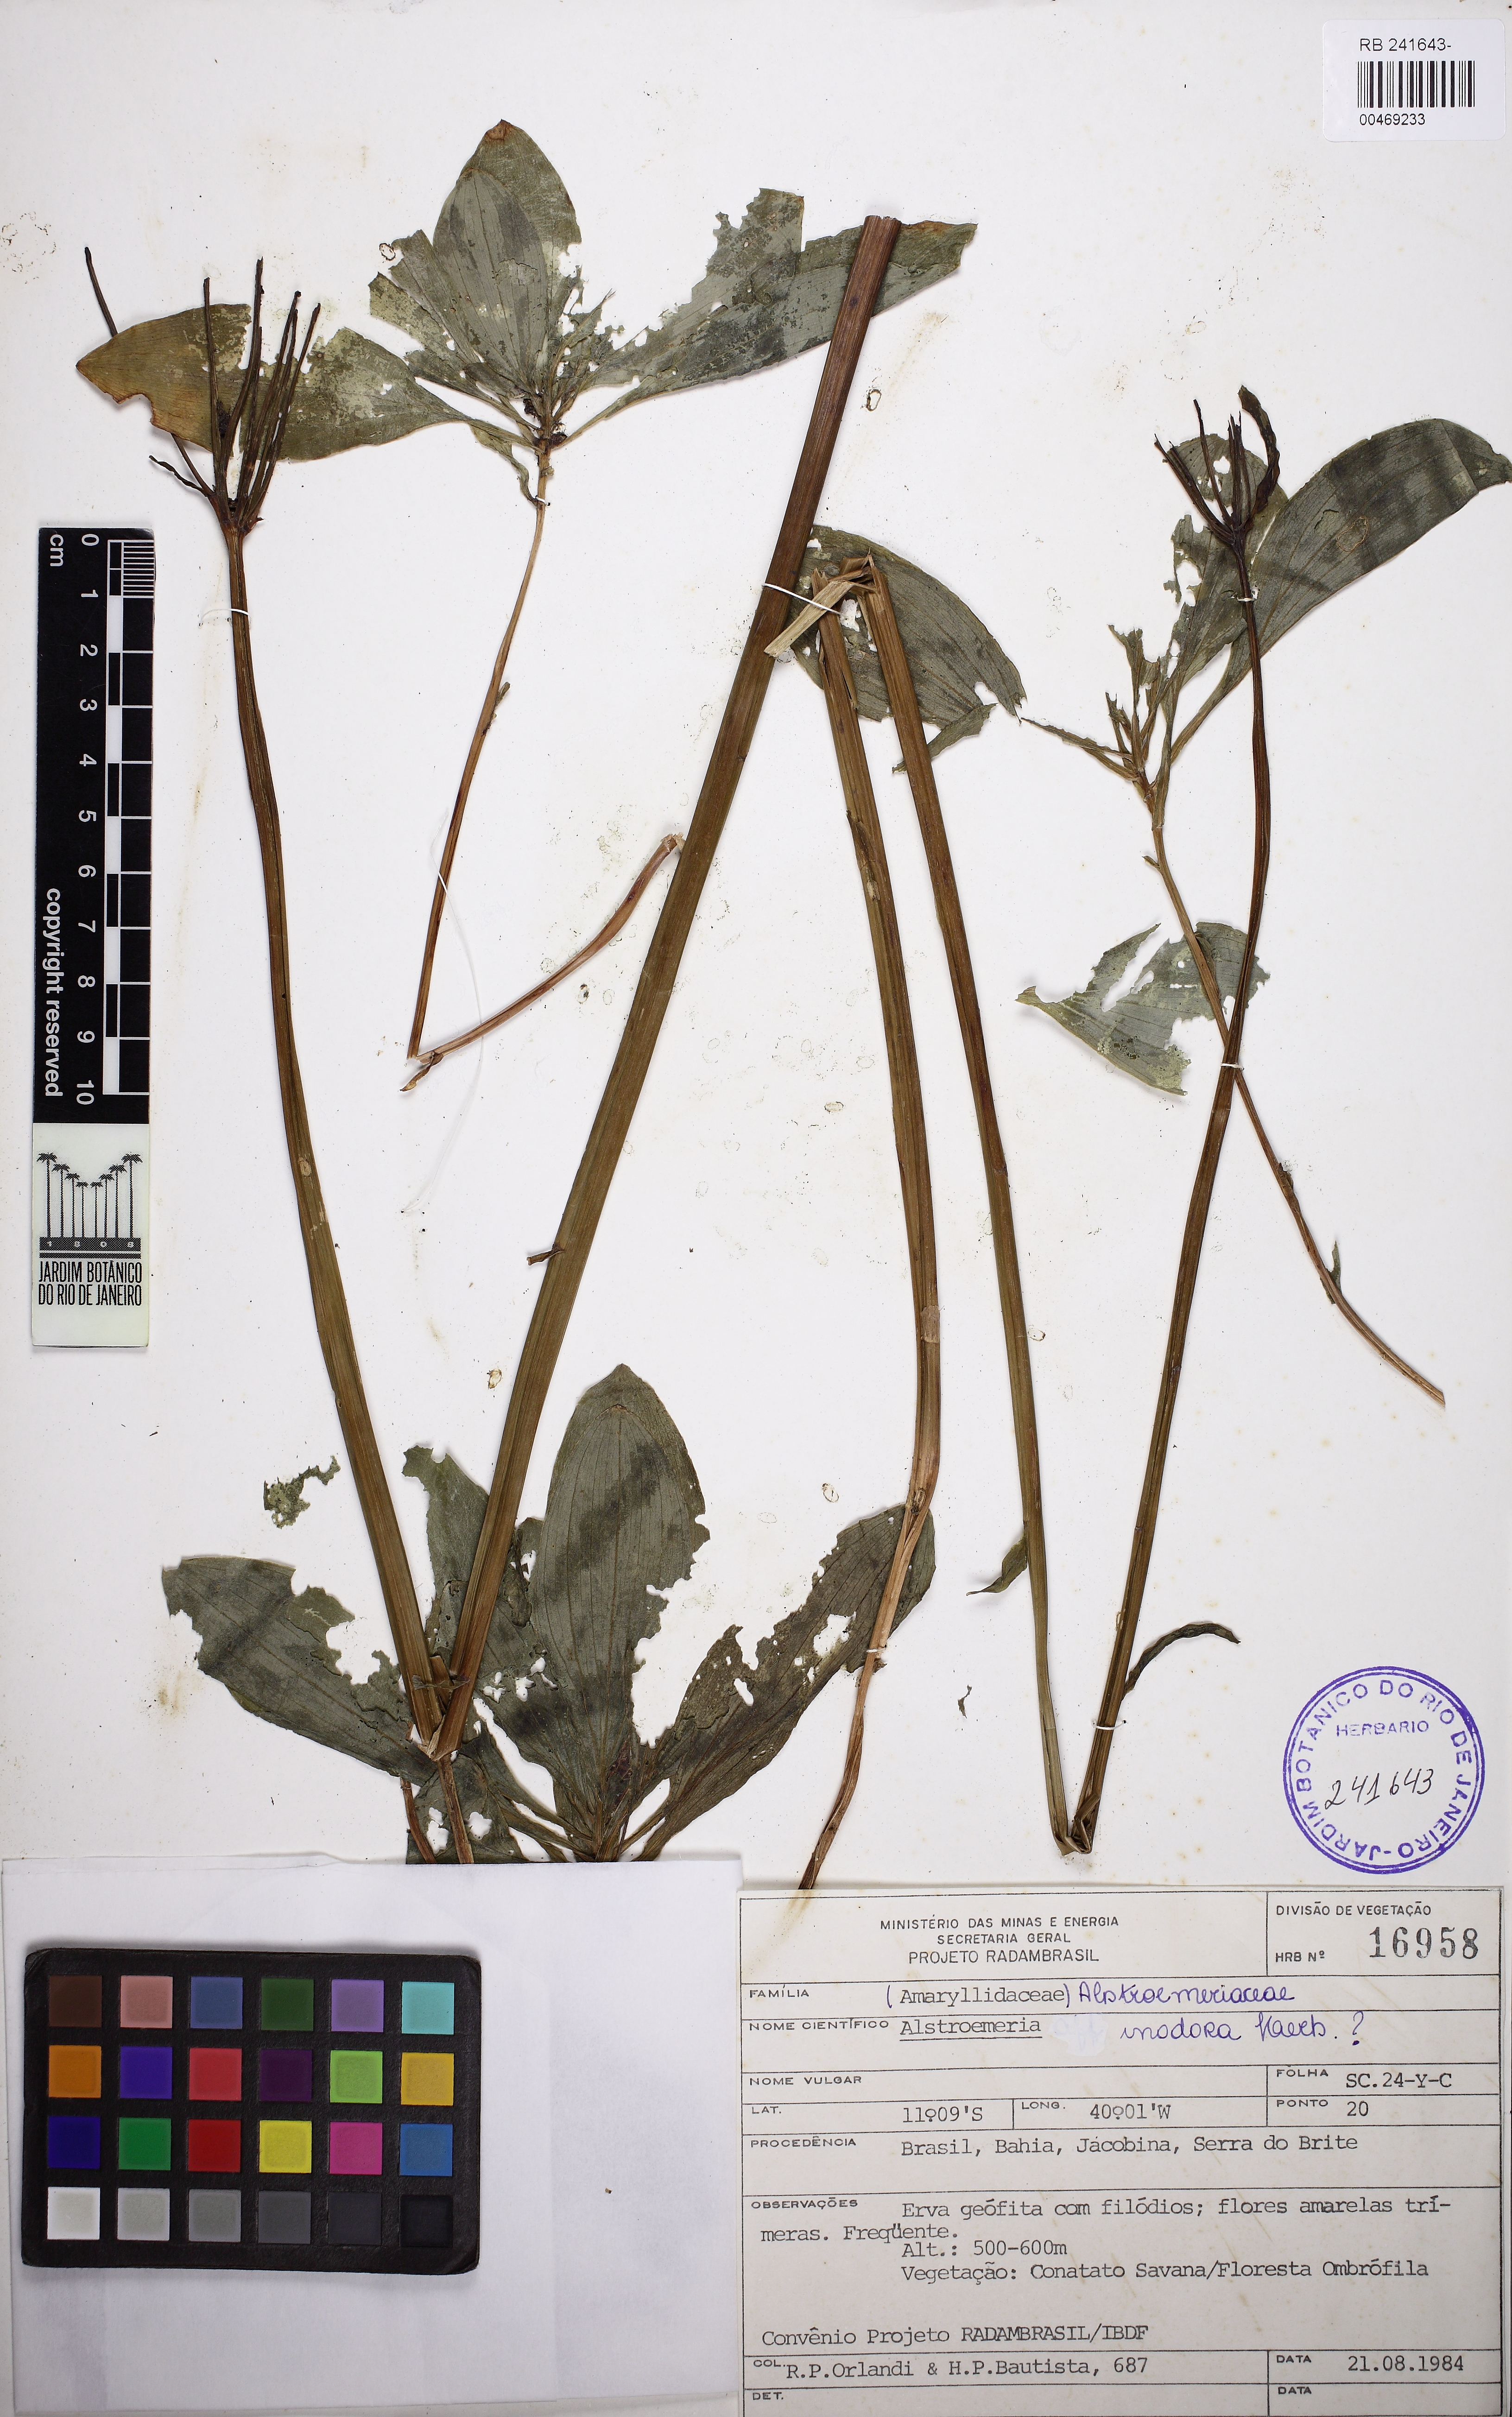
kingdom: Plantae
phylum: Tracheophyta
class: Liliopsida
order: Liliales
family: Alstroemeriaceae
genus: Alstroemeria
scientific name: Alstroemeria inodora
